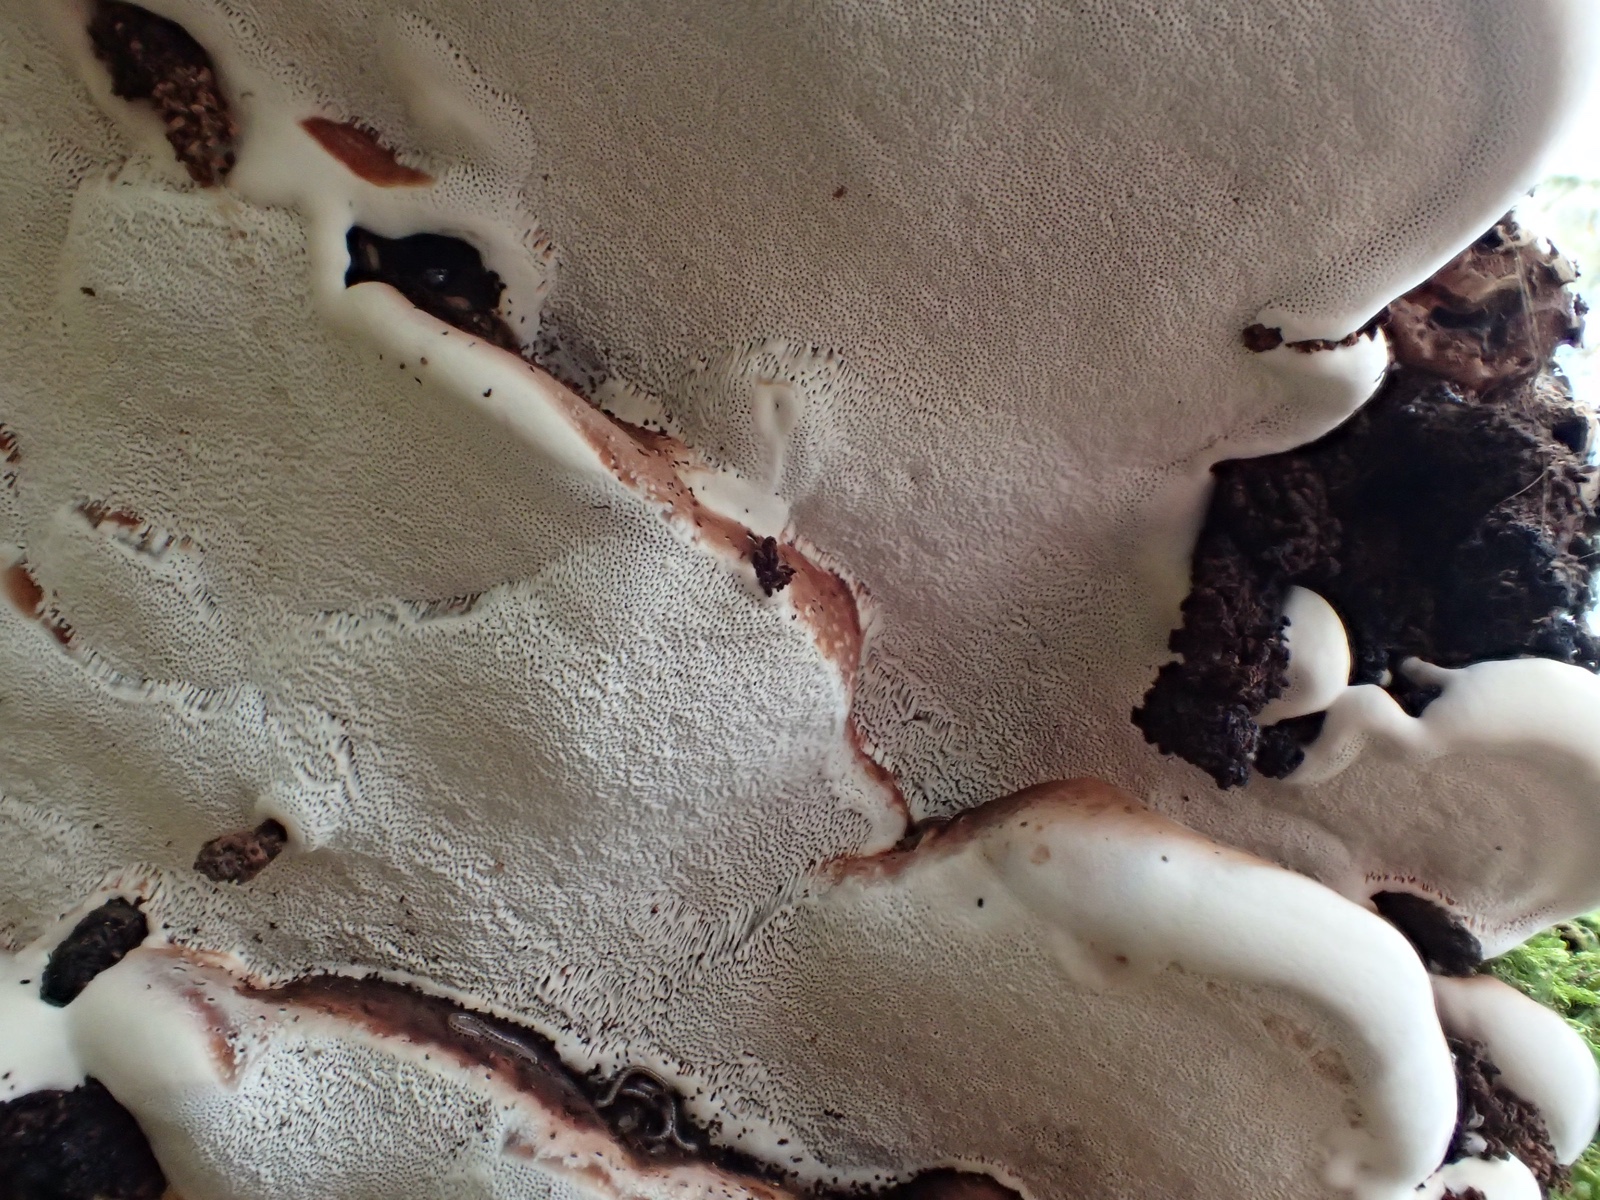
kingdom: Fungi
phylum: Basidiomycota
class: Agaricomycetes
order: Polyporales
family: Polyporaceae
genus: Ganoderma
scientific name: Ganoderma applanatum
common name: flad lakporesvamp
